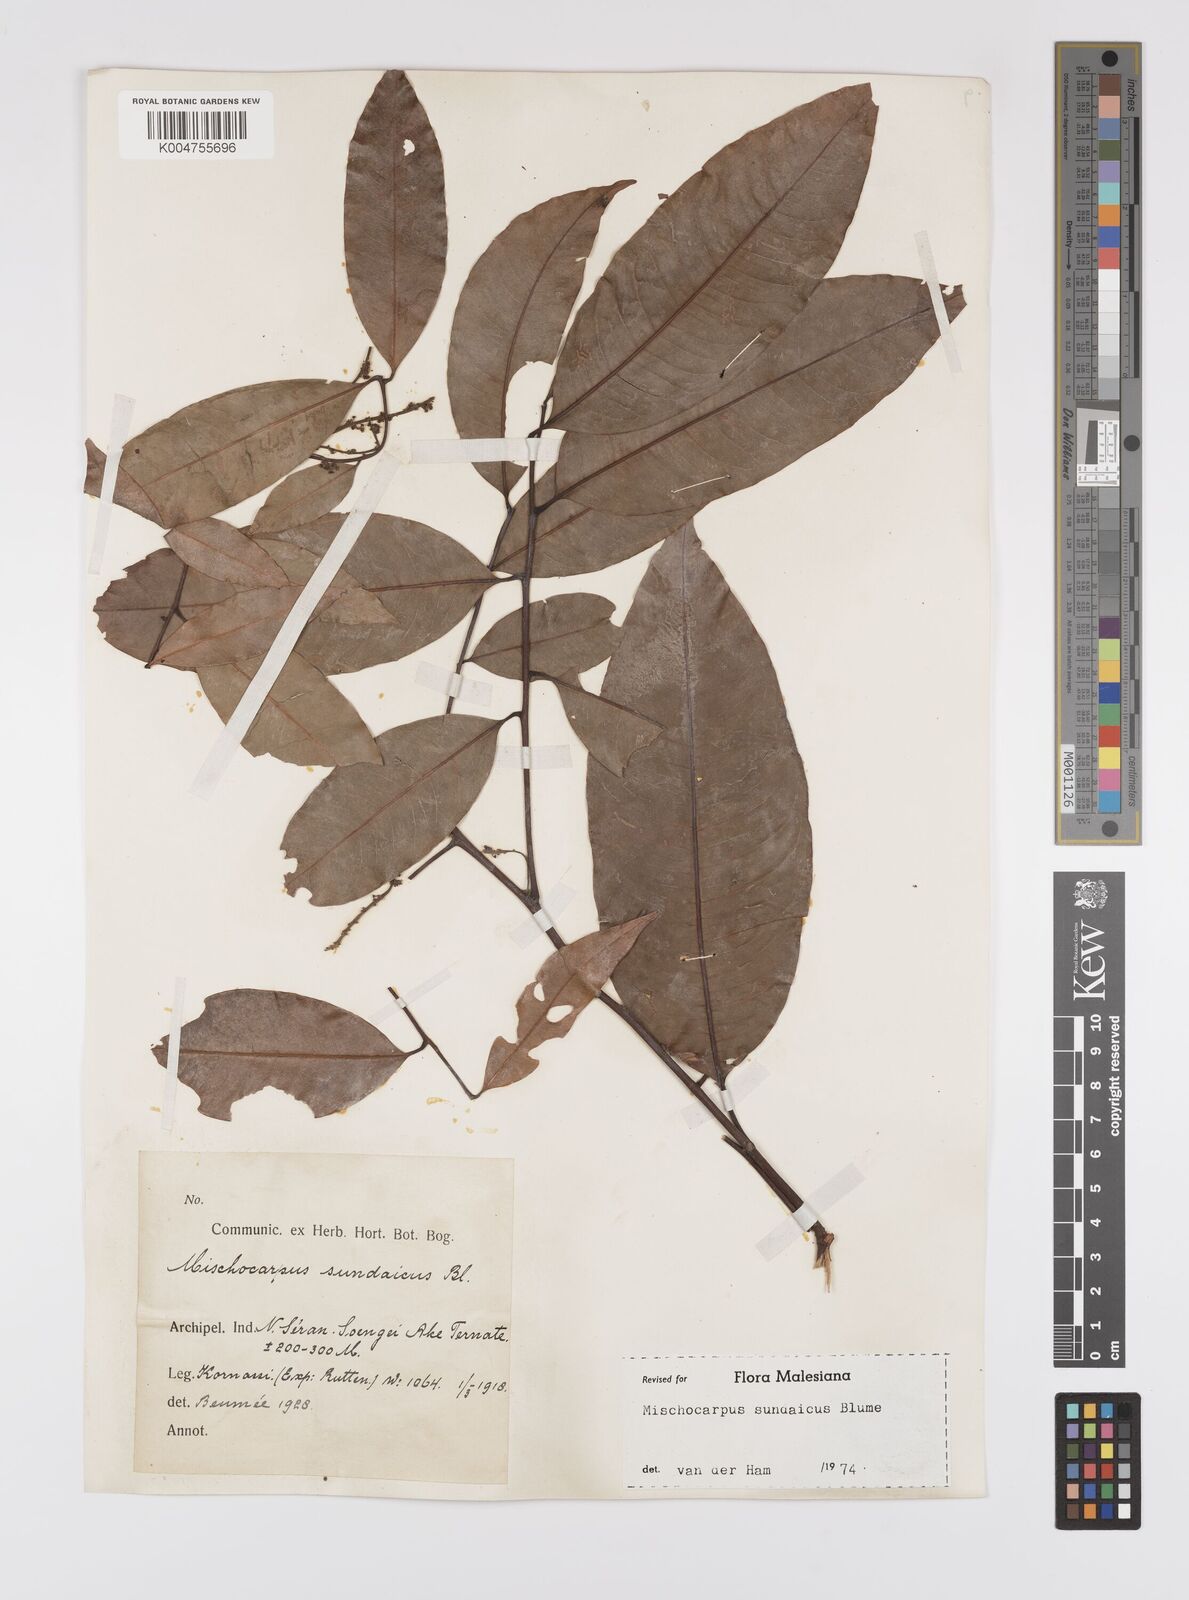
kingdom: Plantae
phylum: Tracheophyta
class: Magnoliopsida
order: Sapindales
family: Sapindaceae
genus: Mischocarpus
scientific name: Mischocarpus sundaicus
